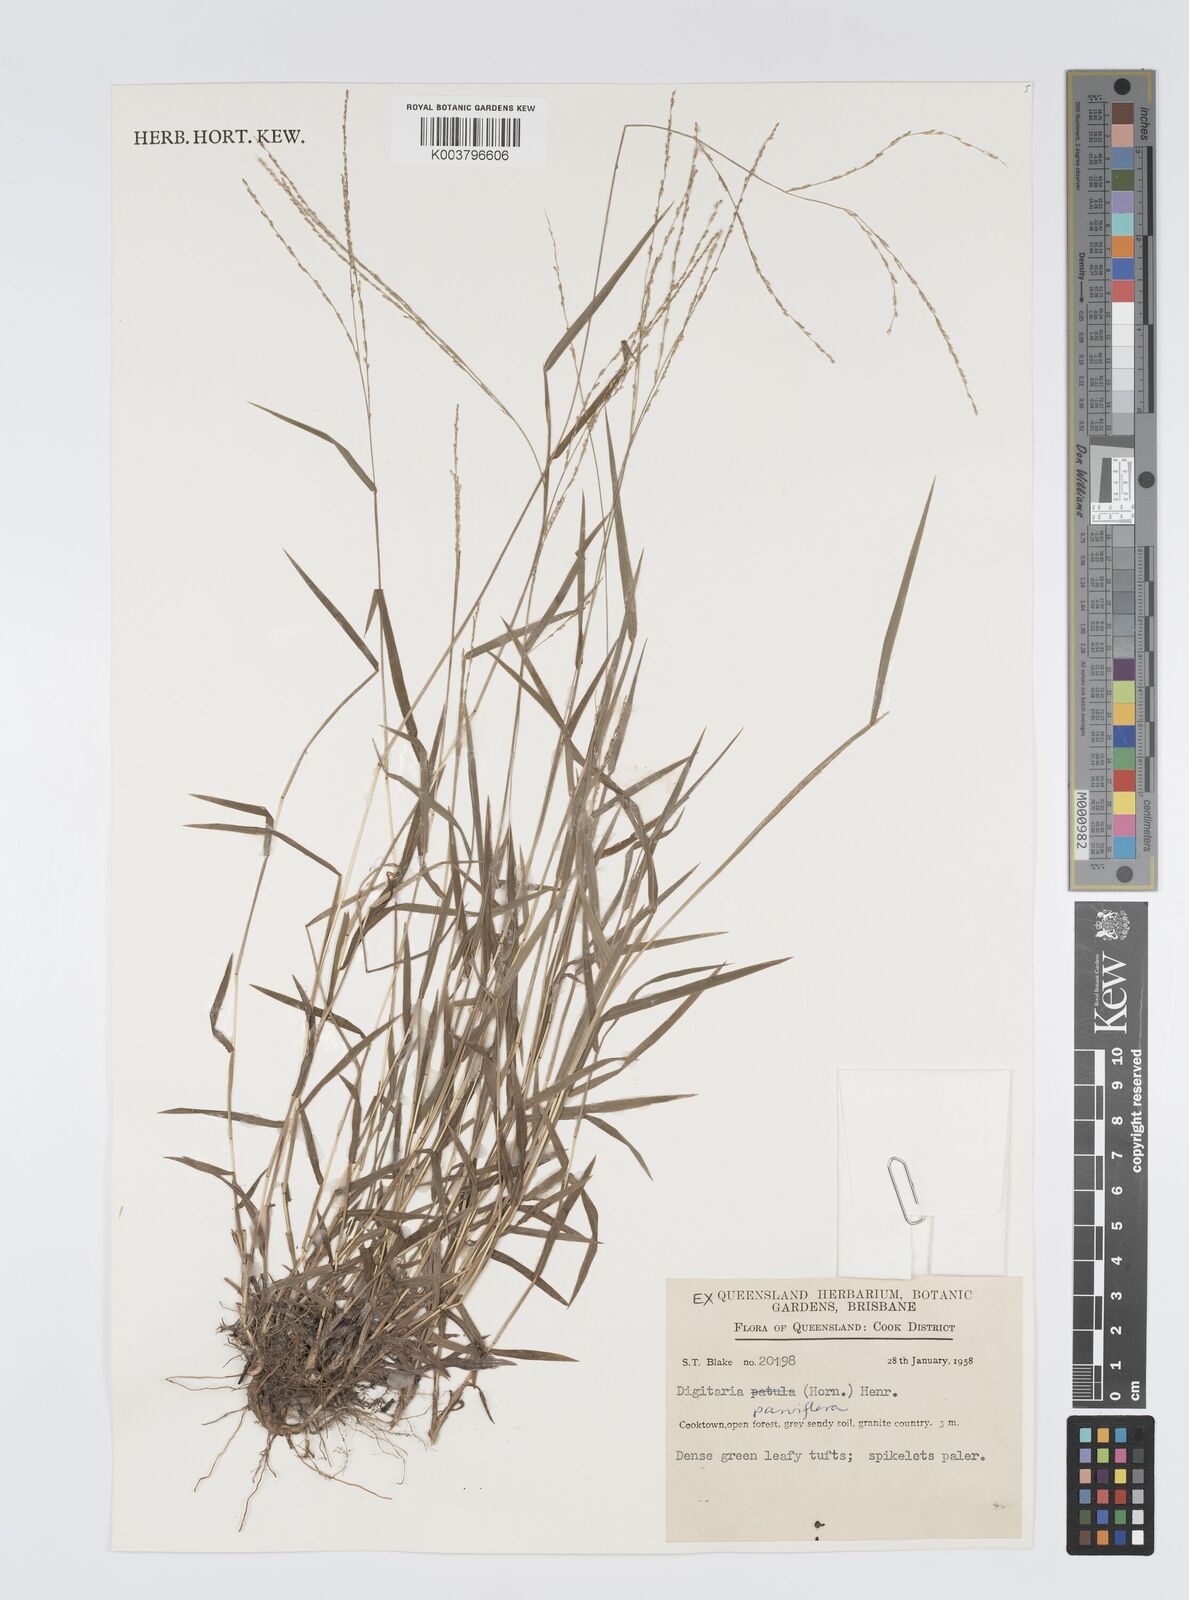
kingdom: Plantae
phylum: Tracheophyta
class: Liliopsida
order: Poales
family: Poaceae
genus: Digitaria
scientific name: Digitaria parviflora
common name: Small-flower finger grass
